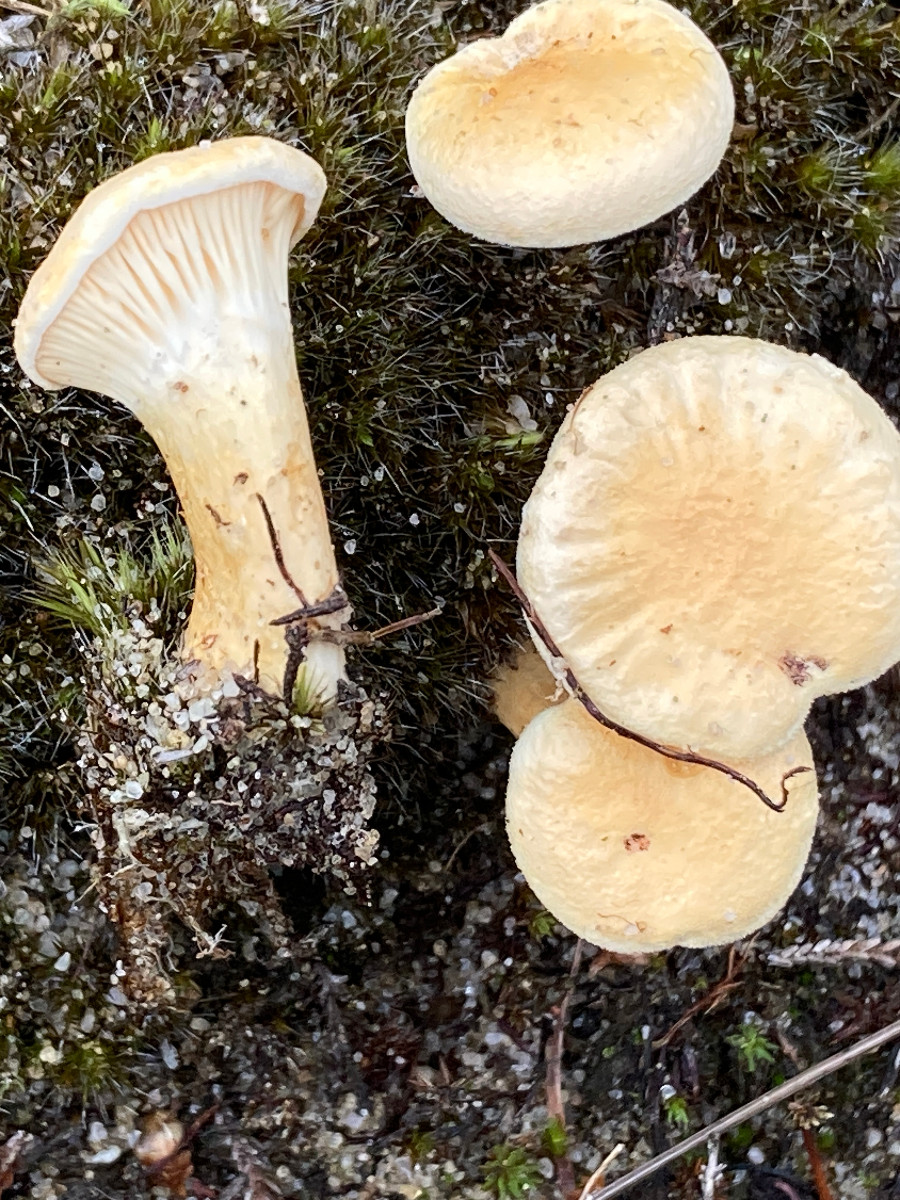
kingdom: Fungi
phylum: Basidiomycota
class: Agaricomycetes
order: Boletales
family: Hygrophoropsidaceae
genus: Hygrophoropsis
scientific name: Hygrophoropsis pallida
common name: bleg orangekantarel
